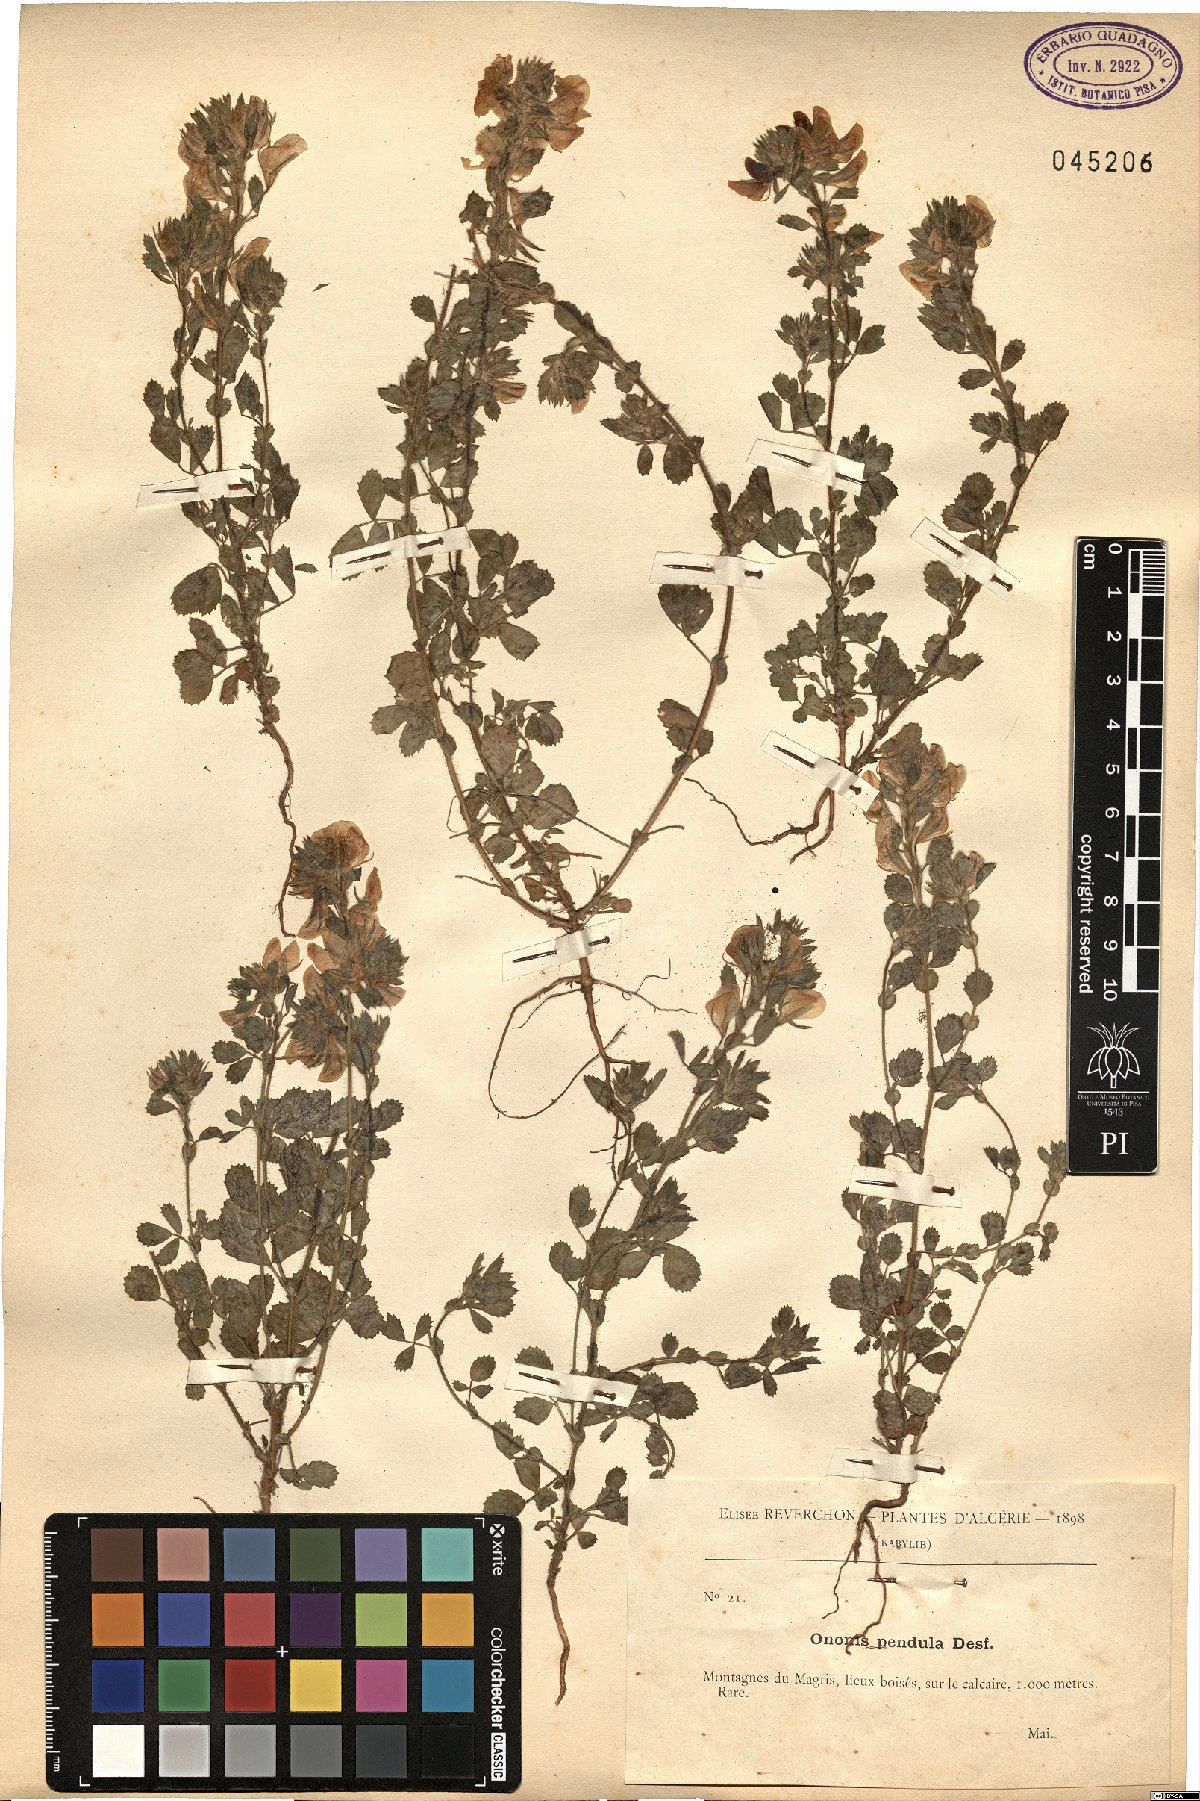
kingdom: Plantae
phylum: Tracheophyta
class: Magnoliopsida
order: Fabales
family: Fabaceae
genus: Ononis
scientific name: Ononis pendula
